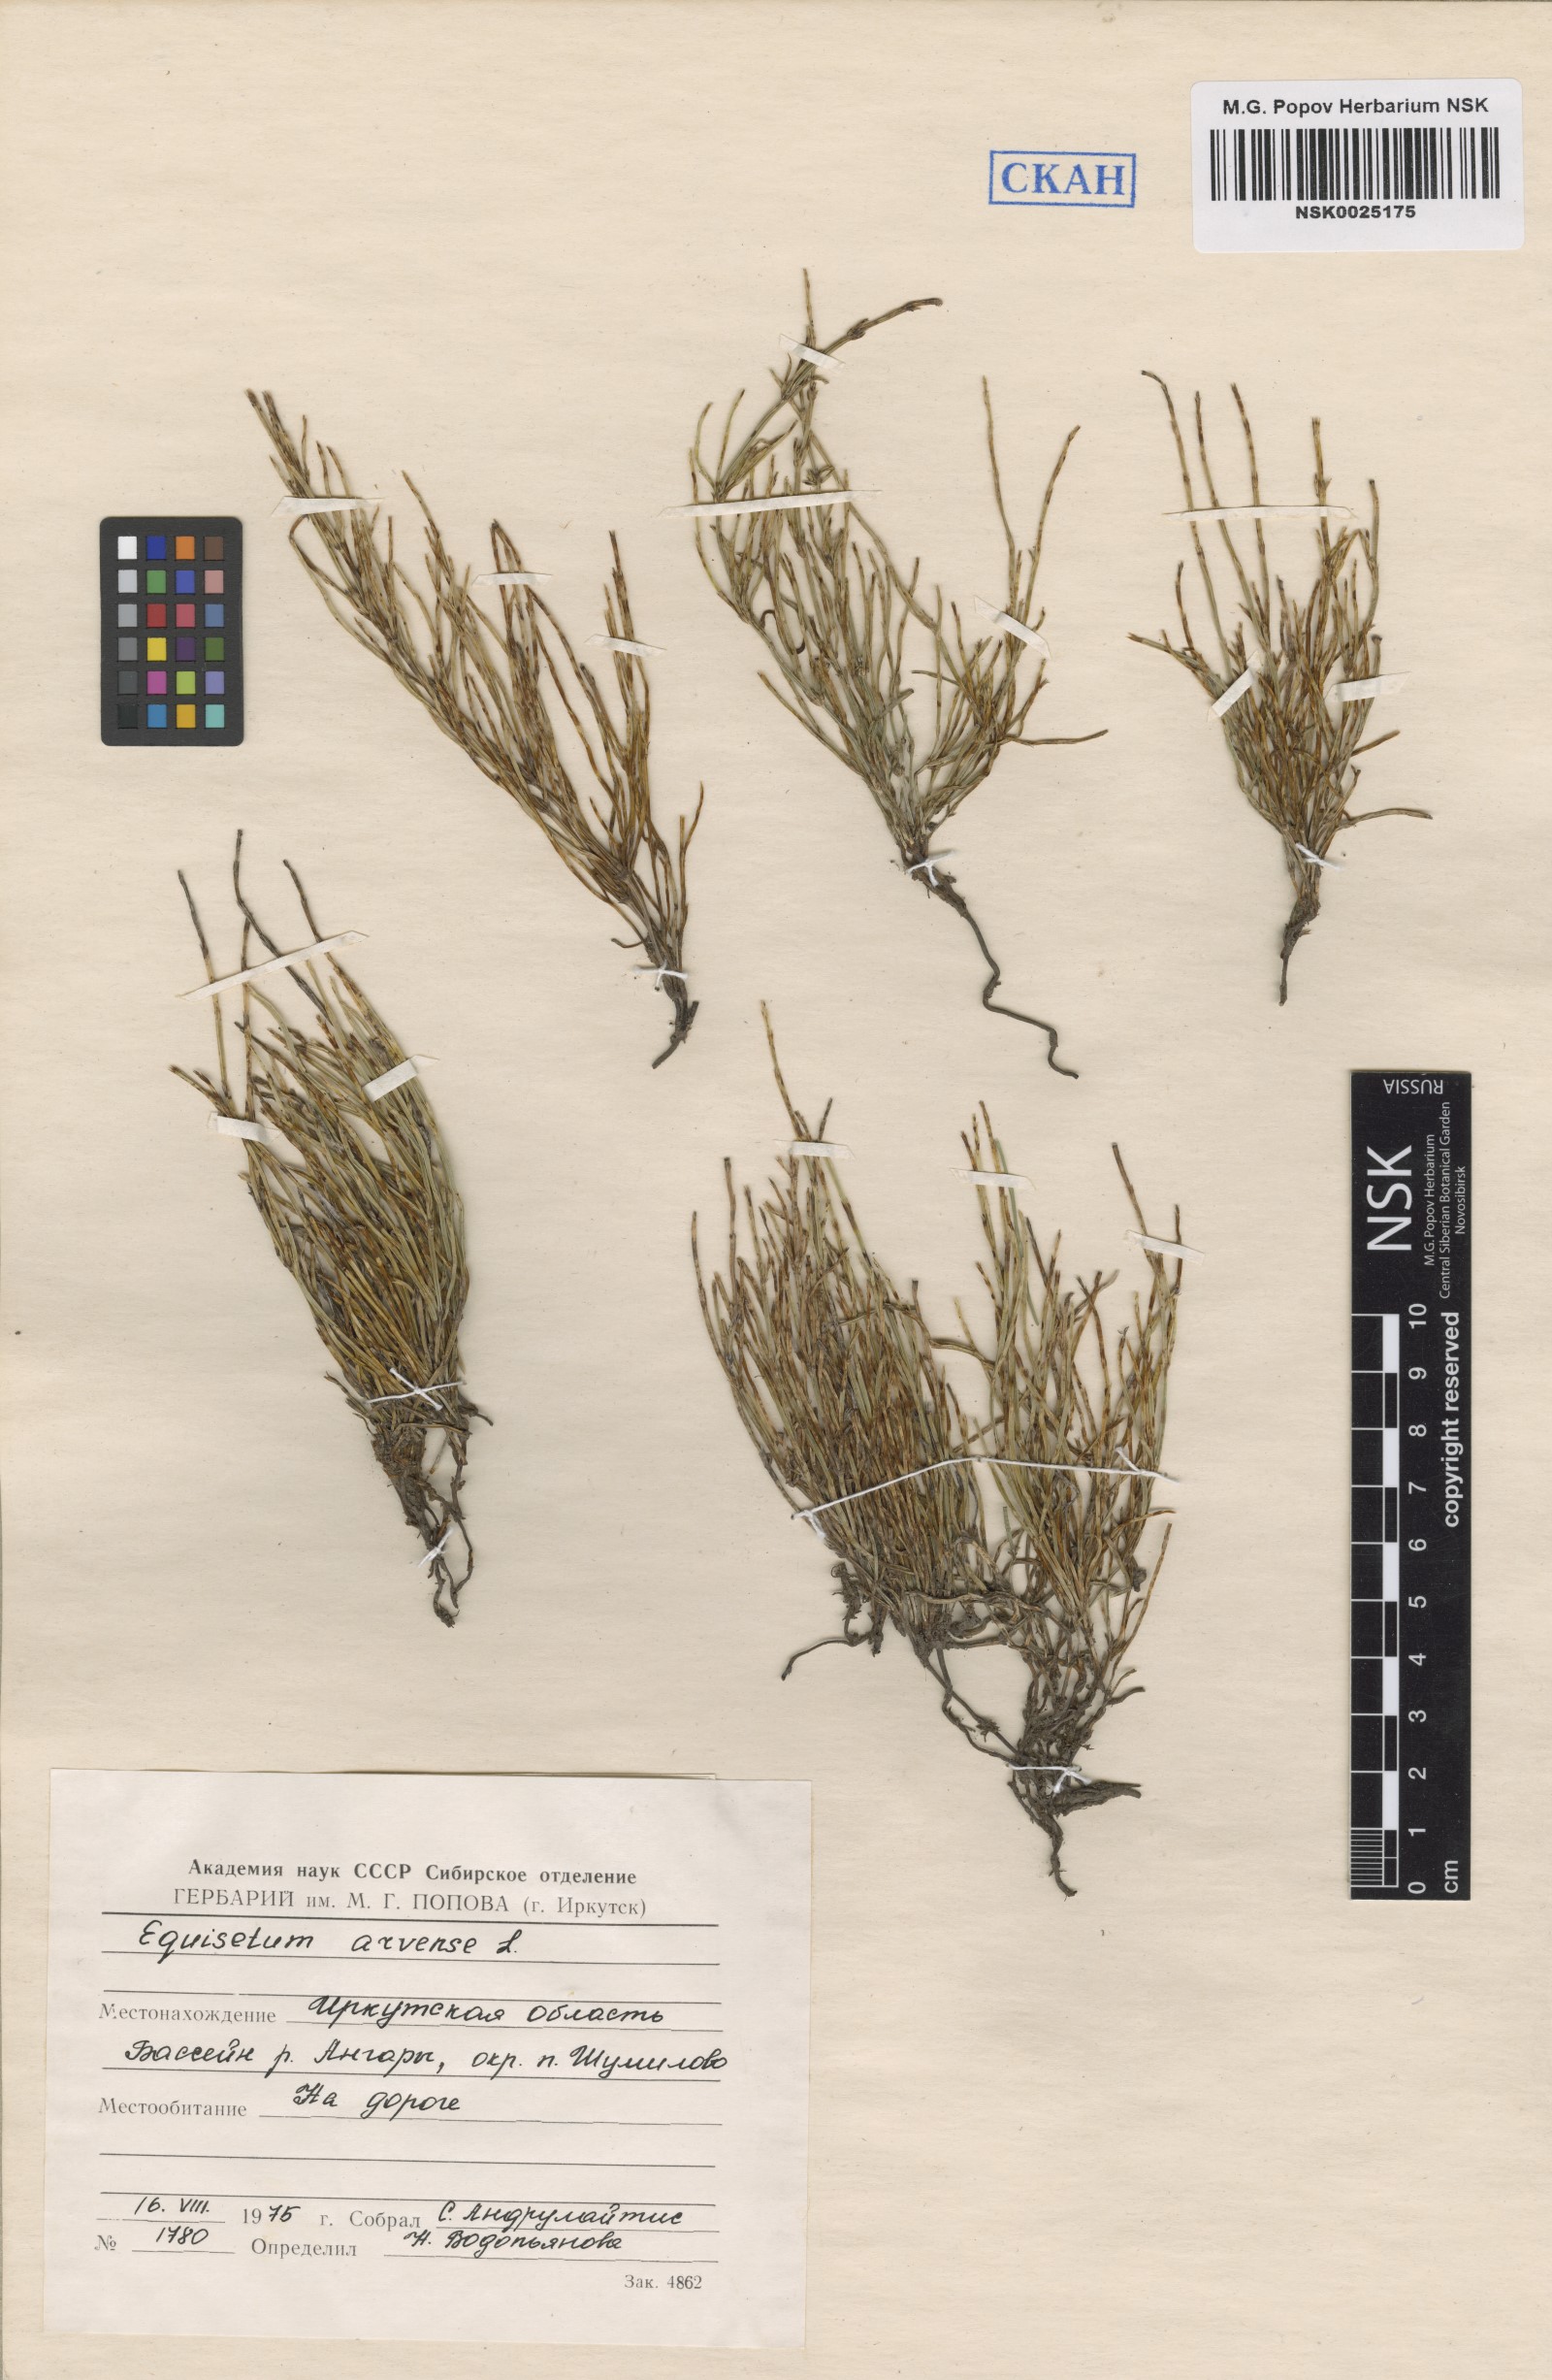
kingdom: Plantae
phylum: Tracheophyta
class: Polypodiopsida
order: Equisetales
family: Equisetaceae
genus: Equisetum
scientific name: Equisetum arvense
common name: Field horsetail
